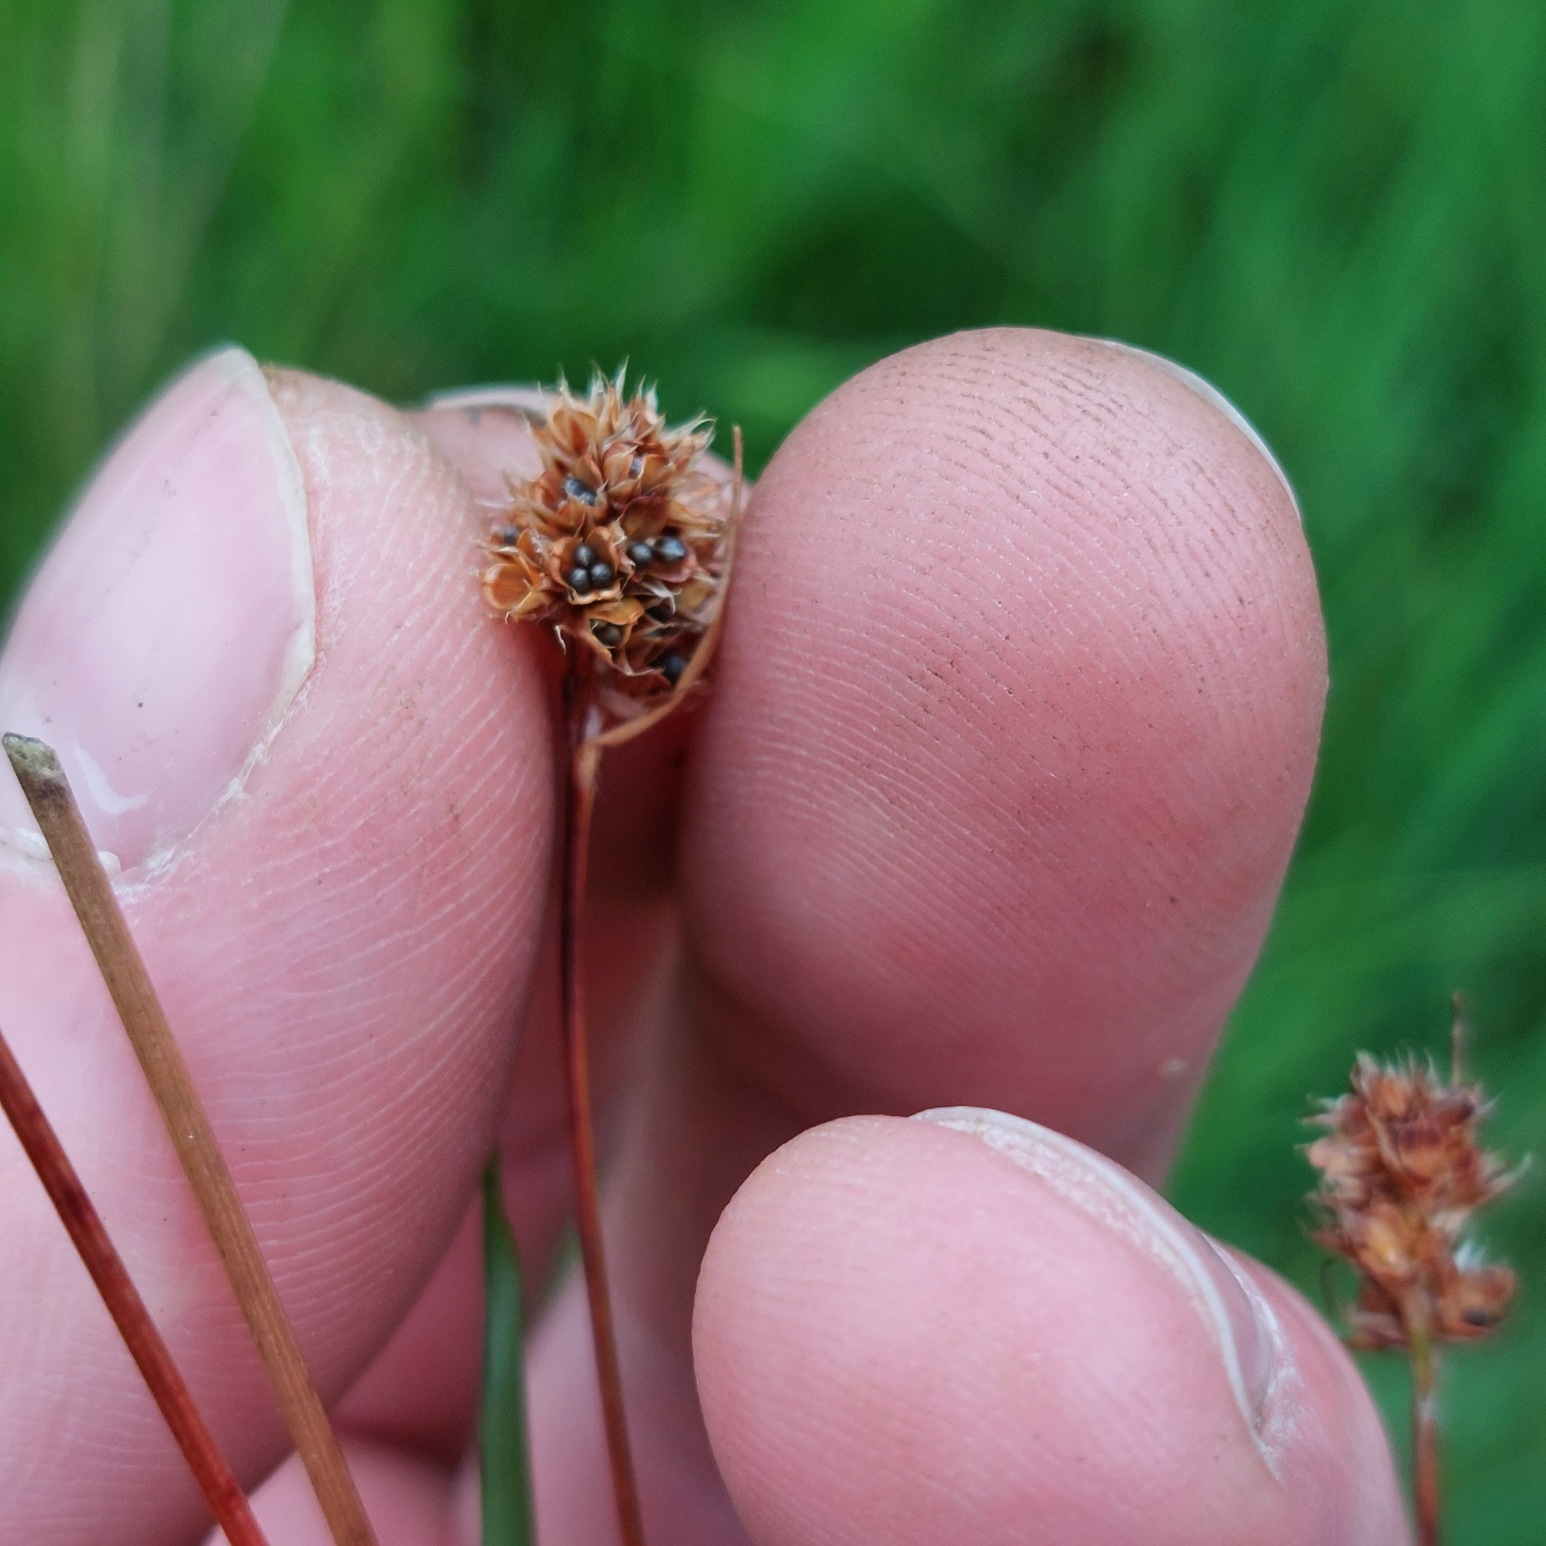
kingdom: Plantae
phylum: Tracheophyta
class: Liliopsida
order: Poales
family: Juncaceae
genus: Luzula
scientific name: Luzula congesta
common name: Hoved-frytle
